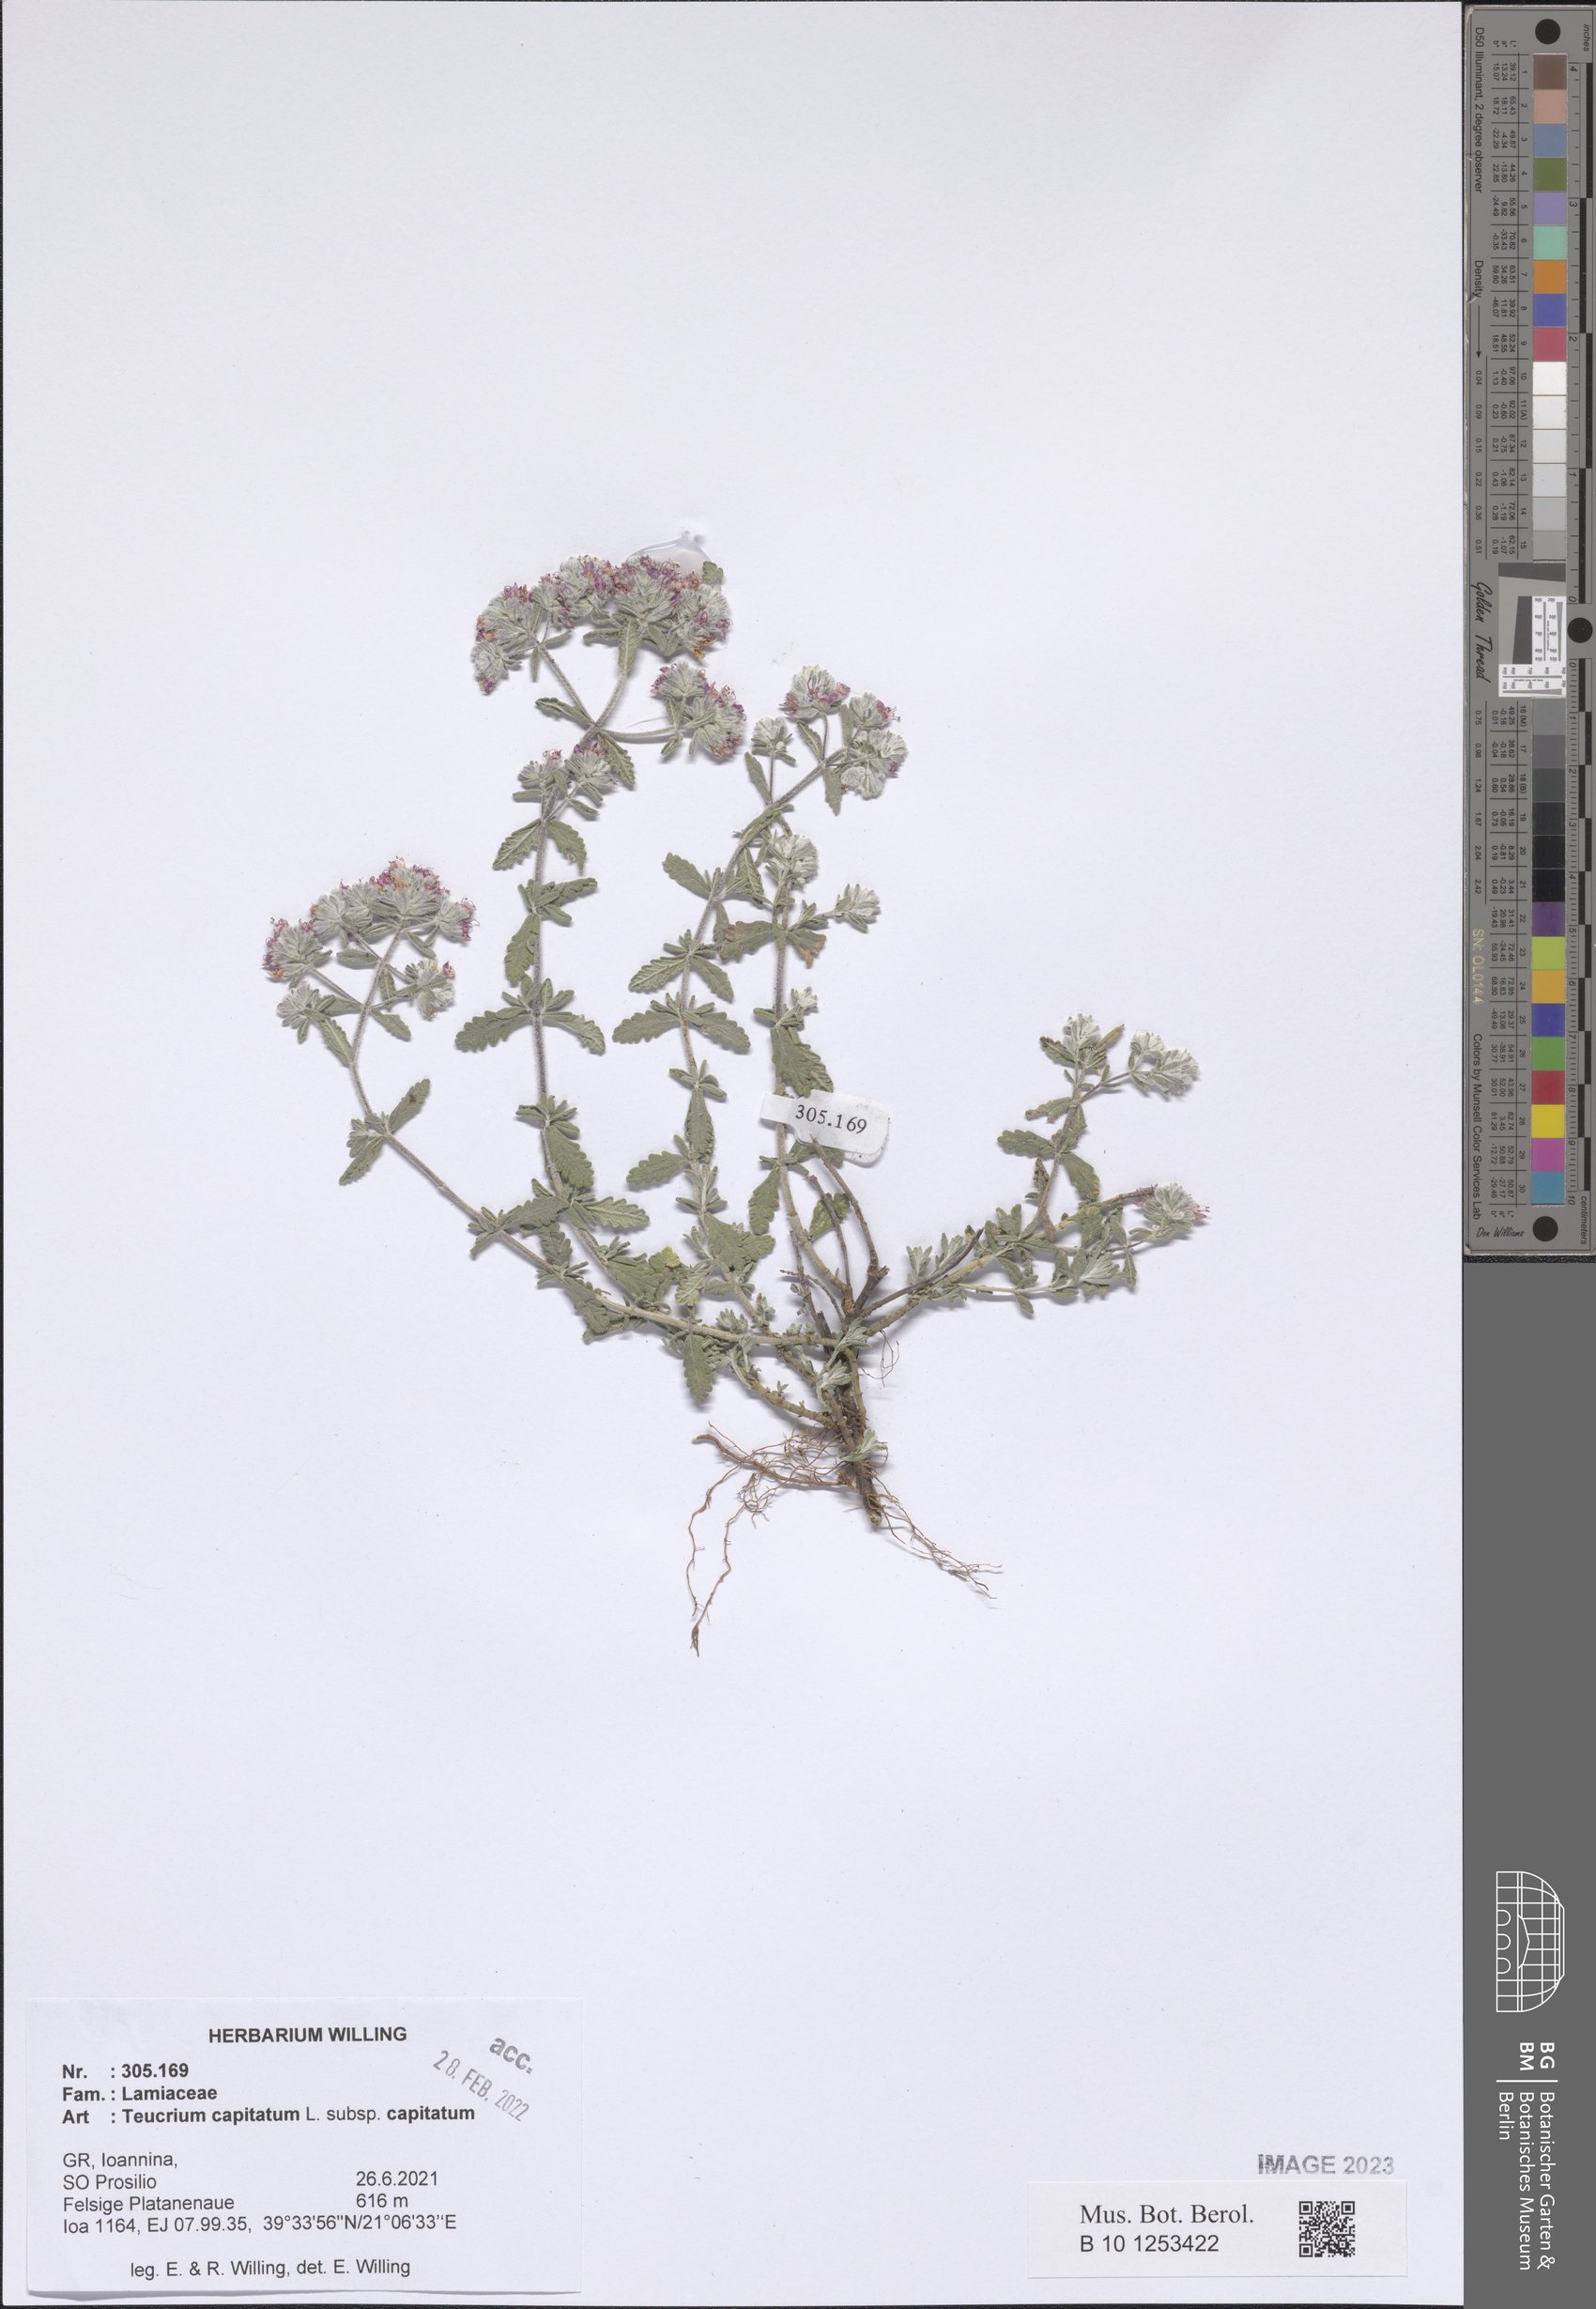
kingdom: Plantae
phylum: Tracheophyta
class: Magnoliopsida
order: Lamiales
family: Lamiaceae
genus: Teucrium
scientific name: Teucrium capitatum
